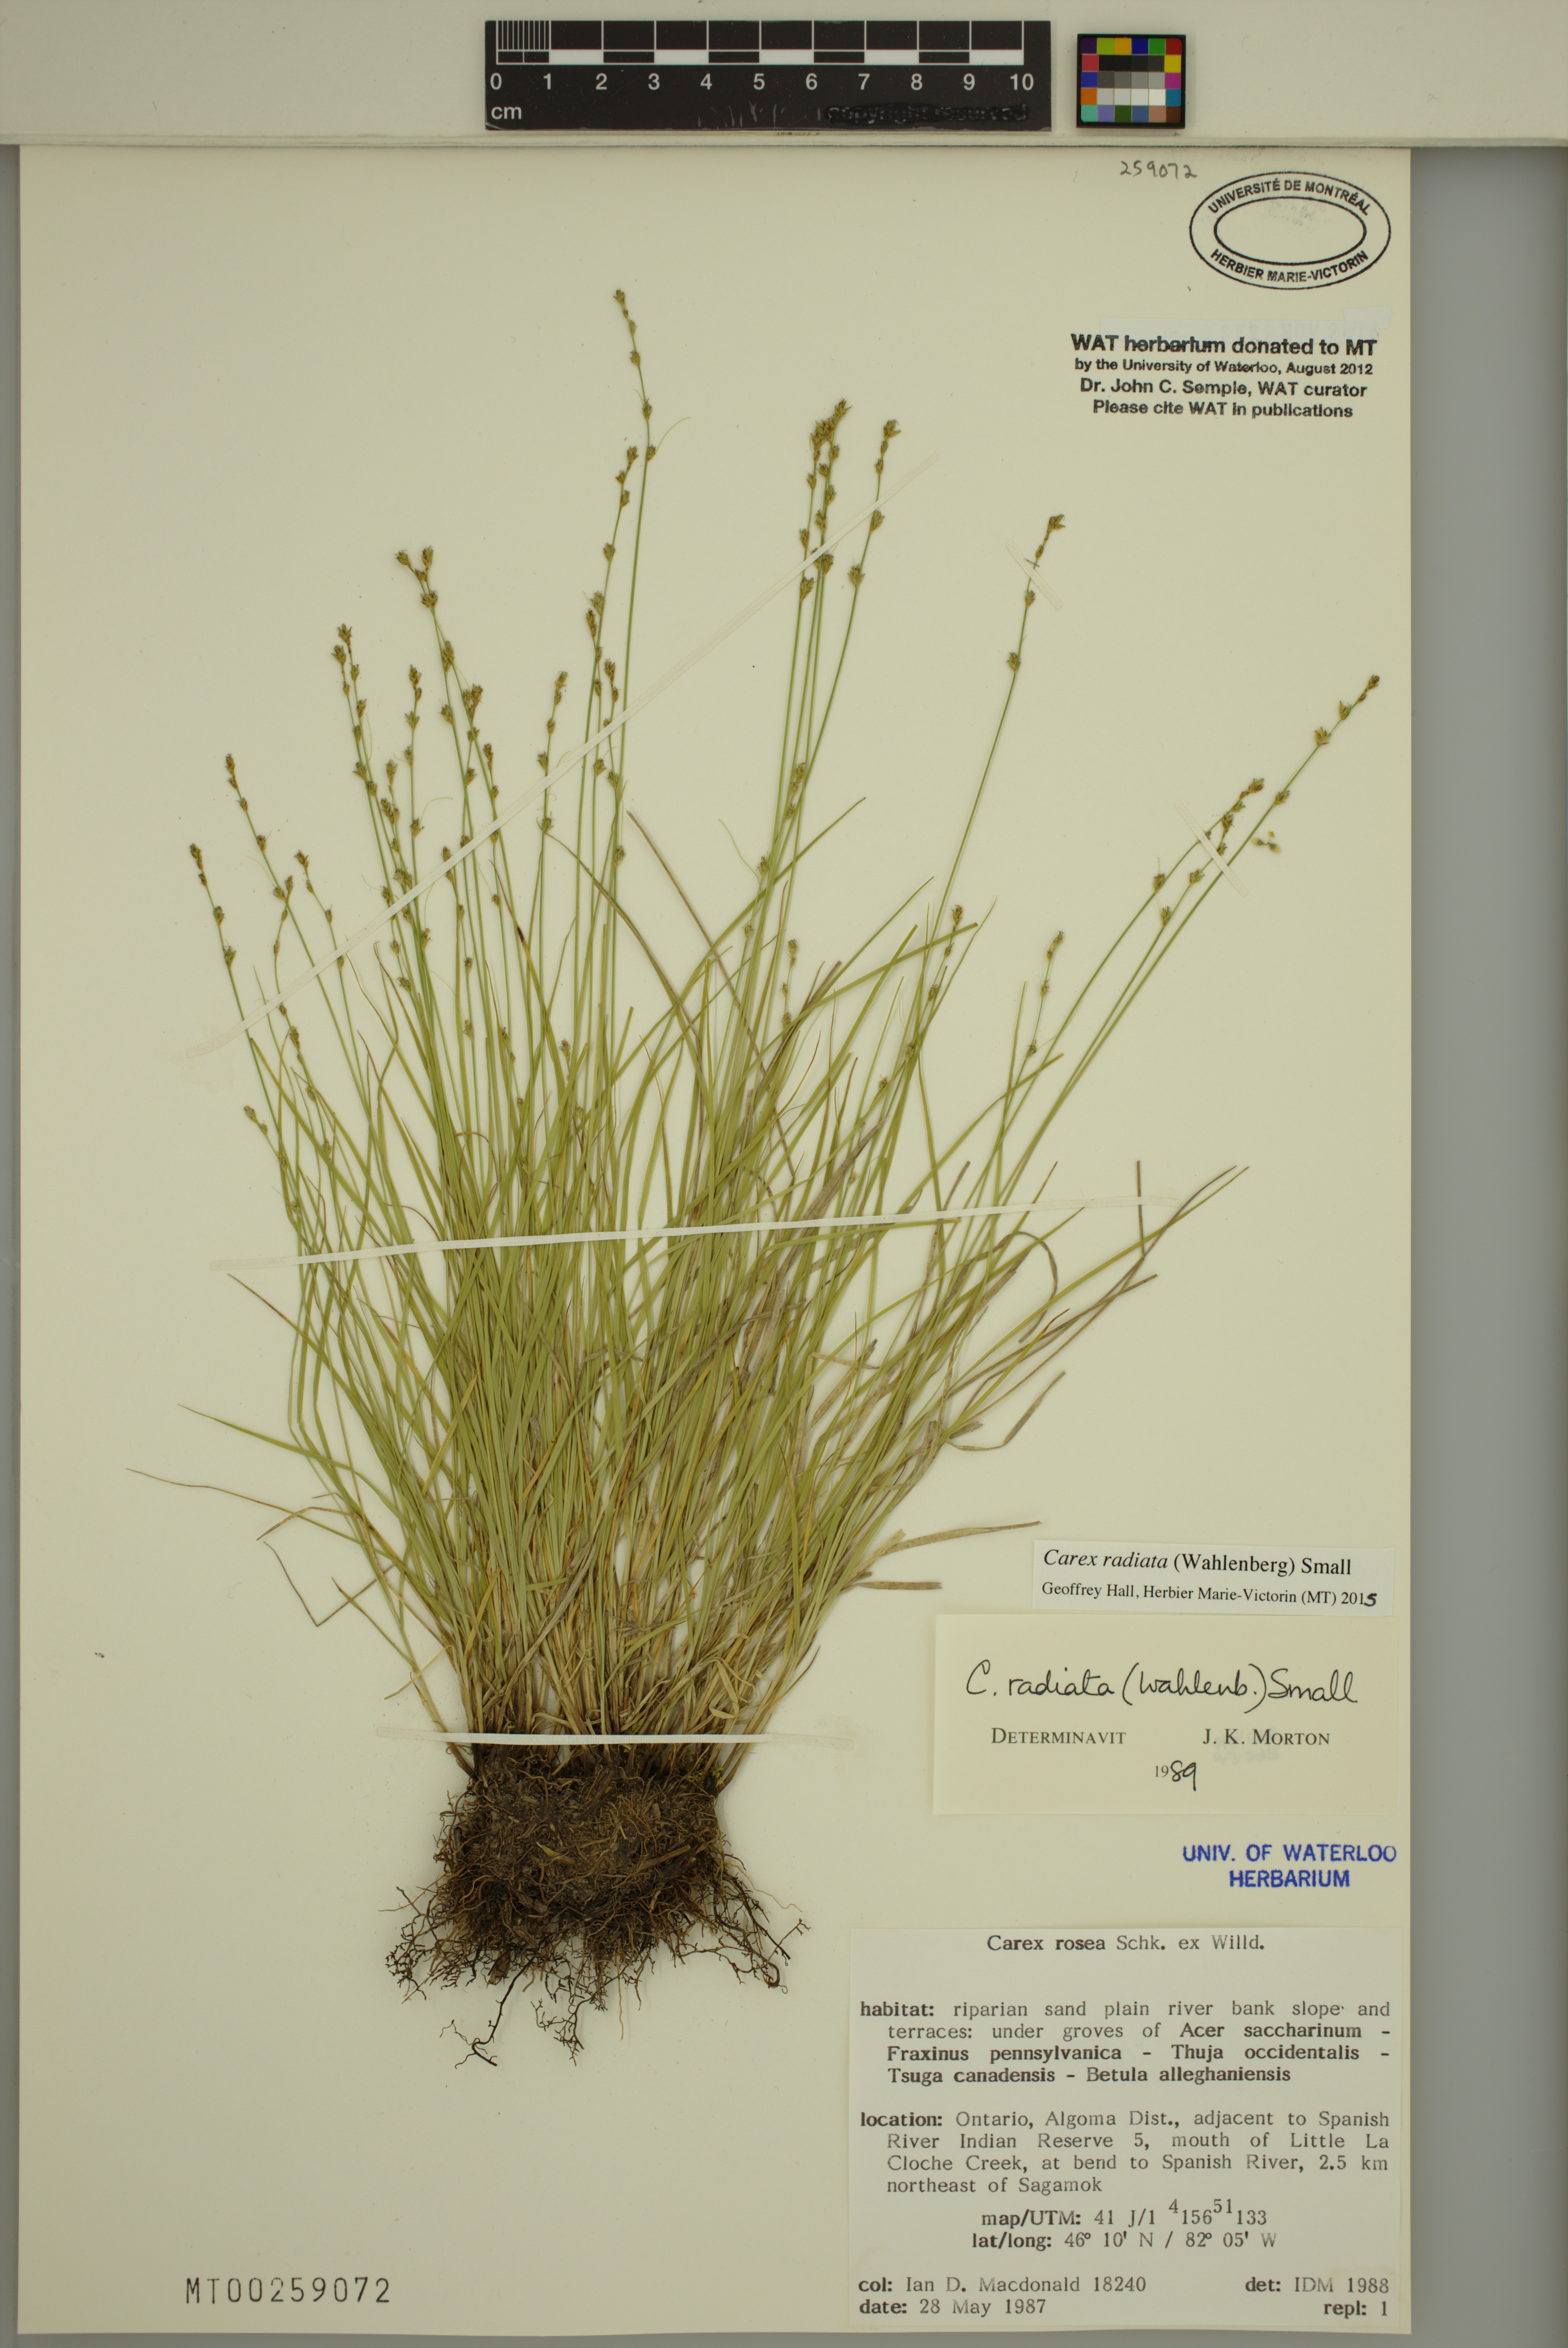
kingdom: Plantae
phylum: Tracheophyta
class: Liliopsida
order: Poales
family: Cyperaceae
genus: Carex
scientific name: Carex radiata
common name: Eastern star sedge
